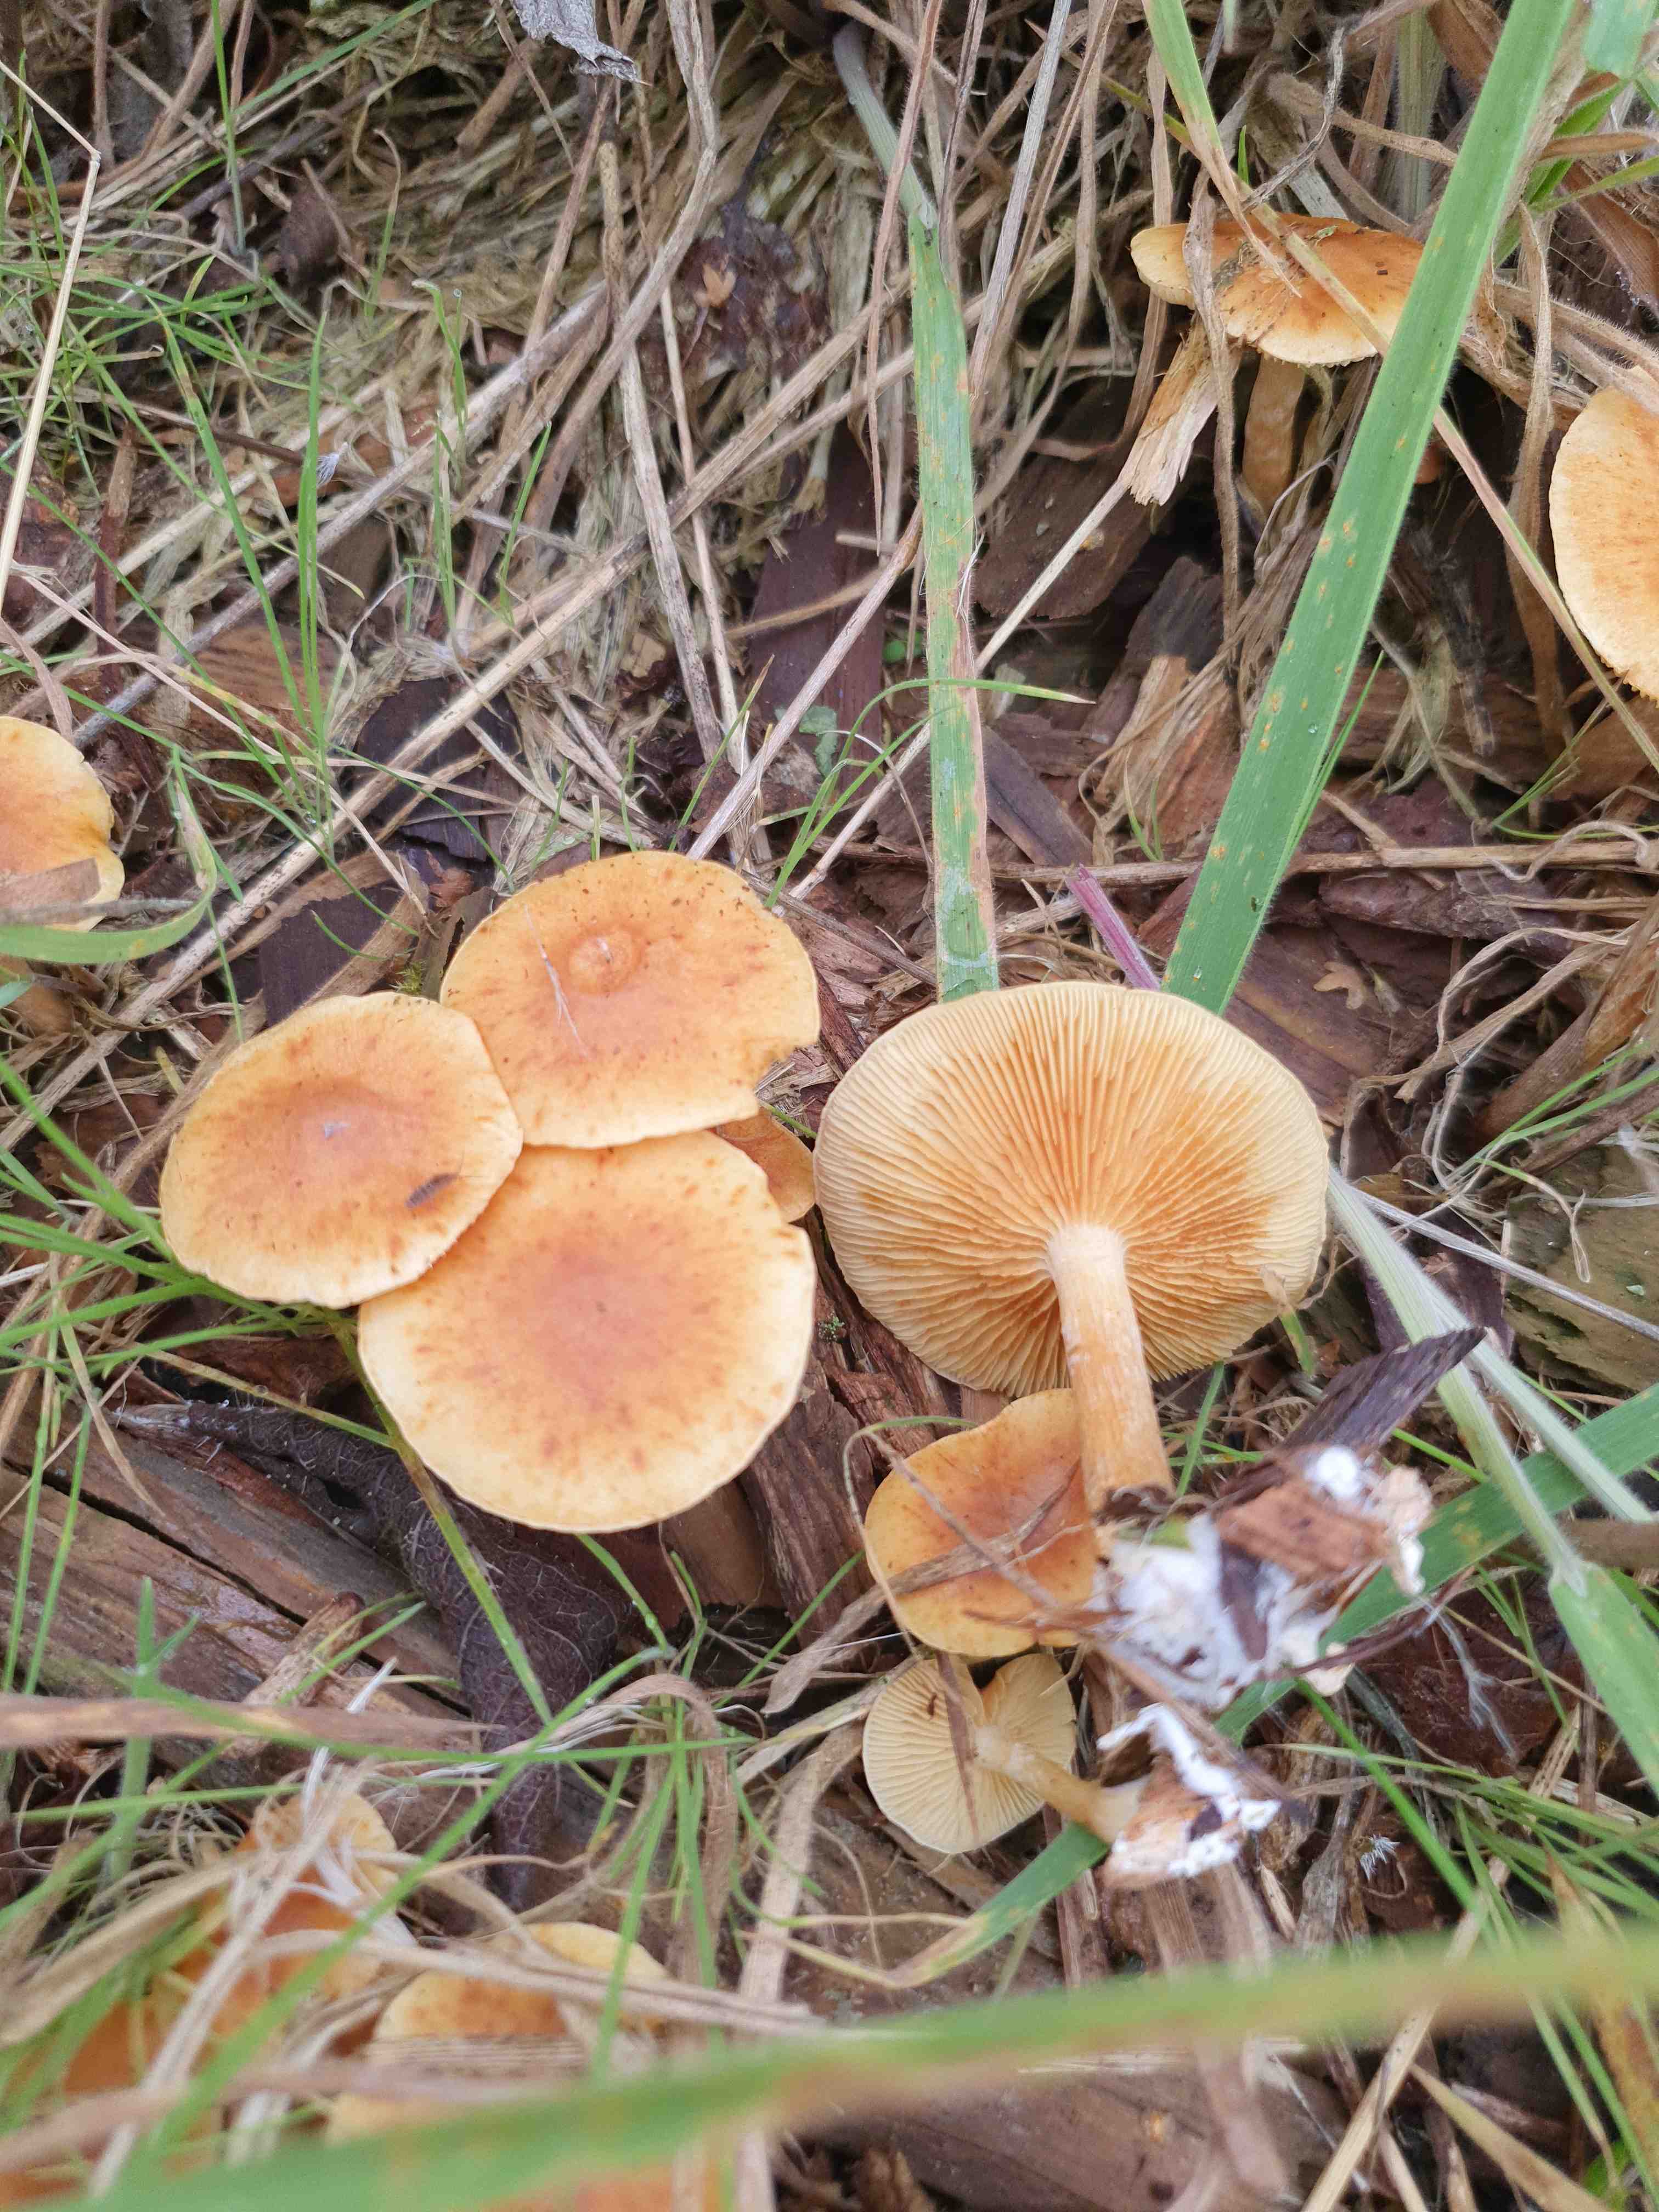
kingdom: Fungi
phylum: Basidiomycota
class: Agaricomycetes
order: Agaricales
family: Hymenogastraceae
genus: Gymnopilus
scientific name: Gymnopilus penetrans
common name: plettet flammehat
